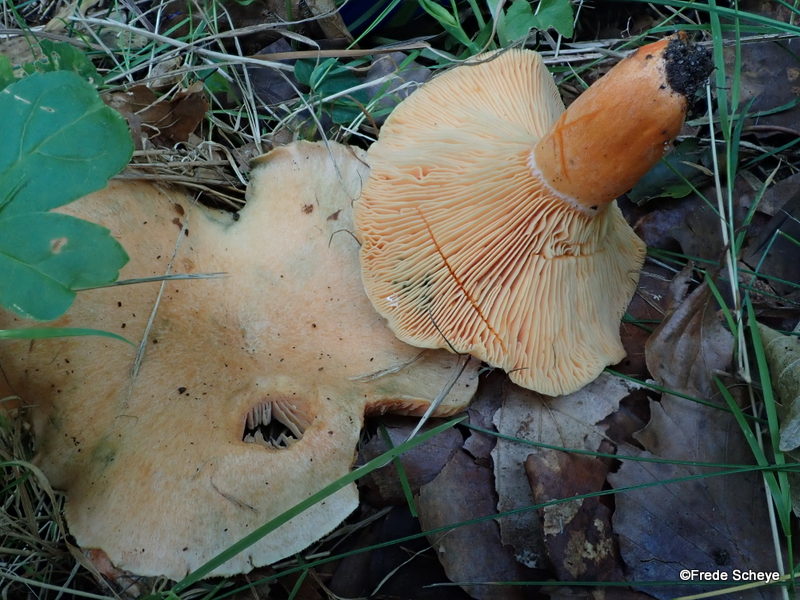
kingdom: Fungi
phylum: Basidiomycota
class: Agaricomycetes
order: Russulales
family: Russulaceae
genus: Lactarius
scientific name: Lactarius deterrimus
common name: gran-mælkehat
